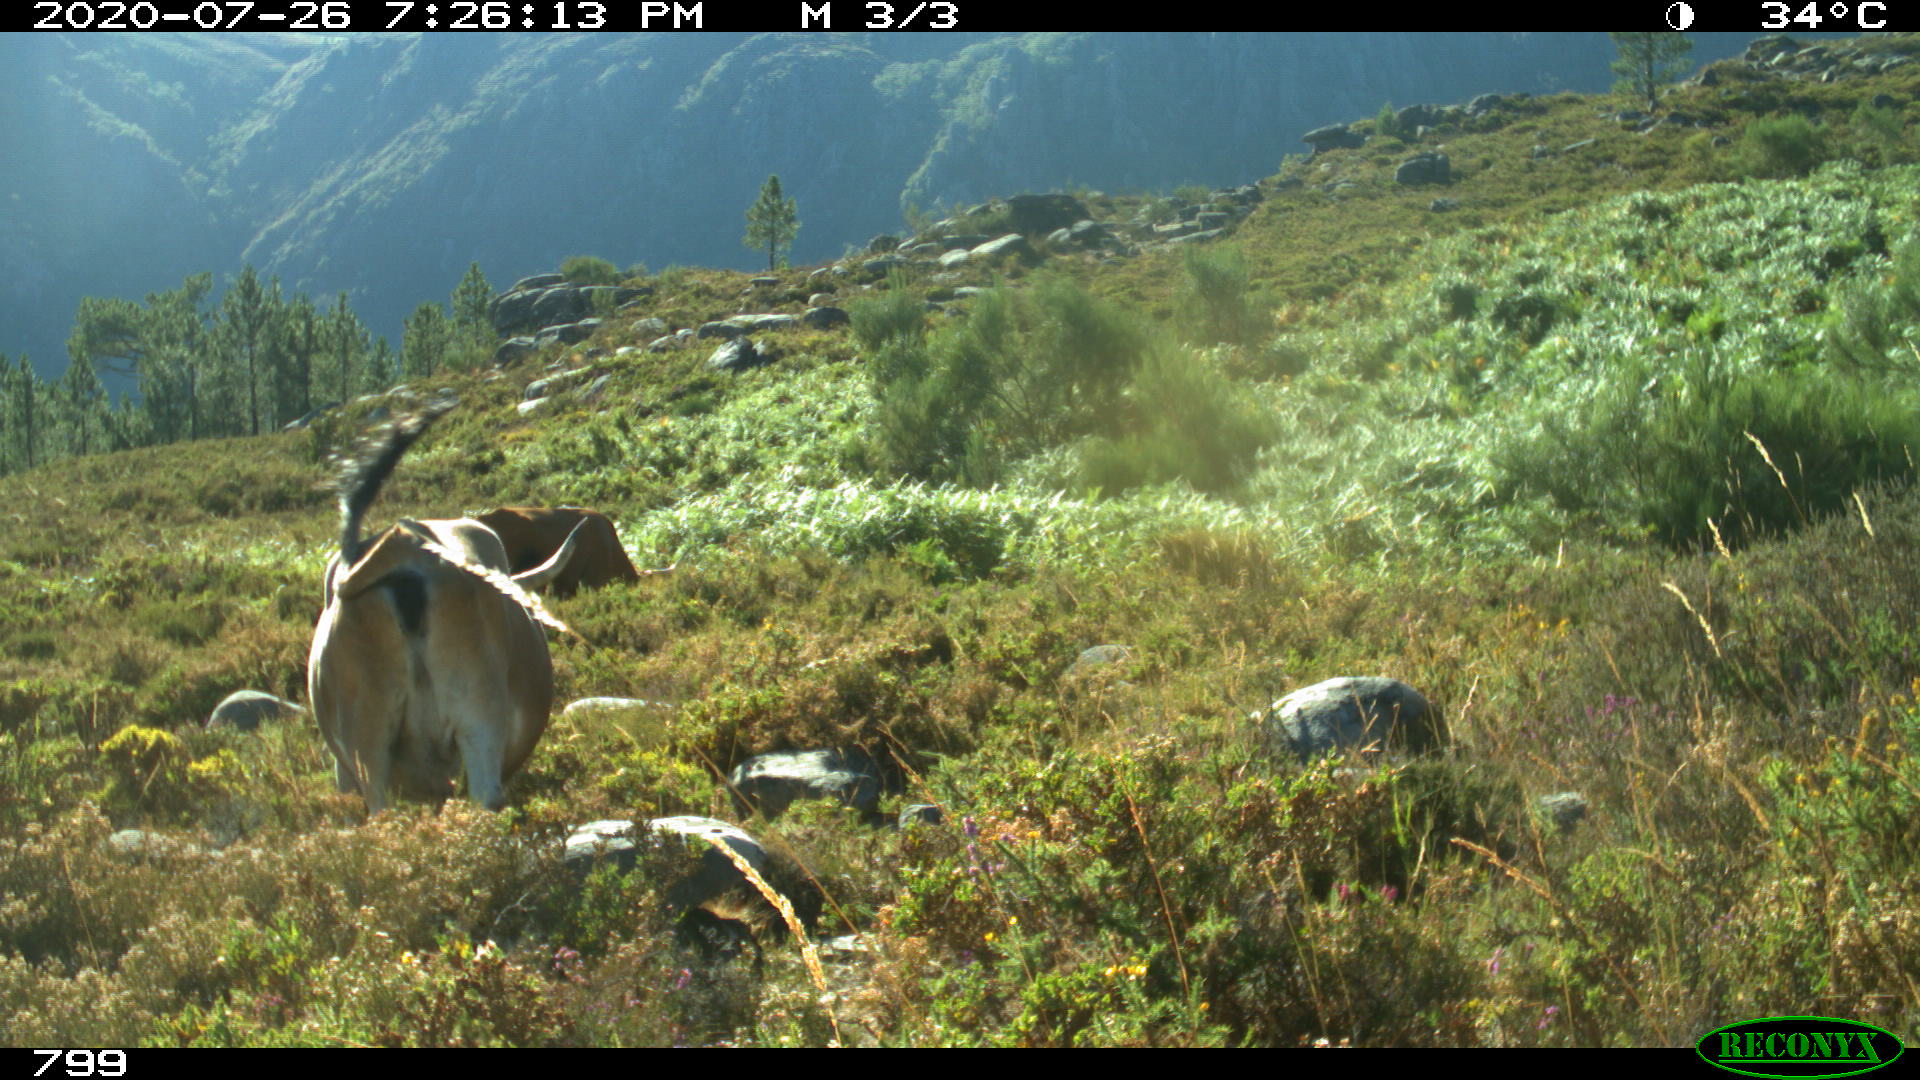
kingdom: Animalia
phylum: Chordata
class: Mammalia
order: Artiodactyla
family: Bovidae
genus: Bos
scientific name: Bos taurus
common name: Domesticated cattle
